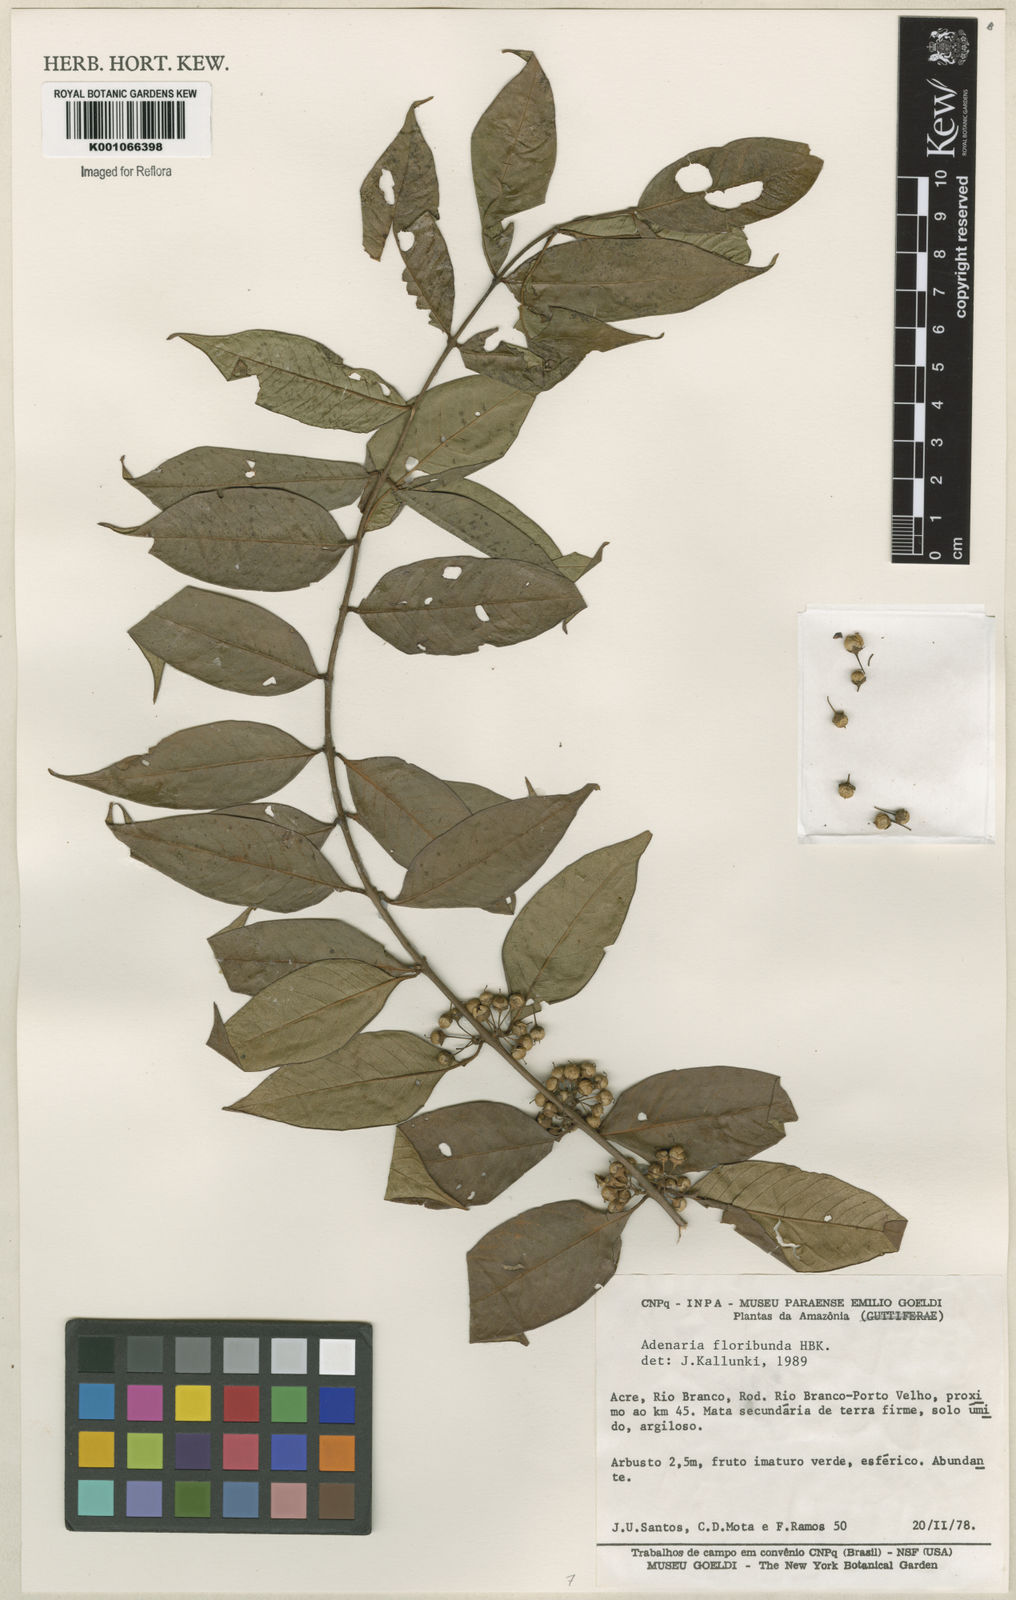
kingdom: Plantae
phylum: Tracheophyta
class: Magnoliopsida
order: Myrtales
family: Lythraceae
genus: Adenaria
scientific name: Adenaria floribunda
